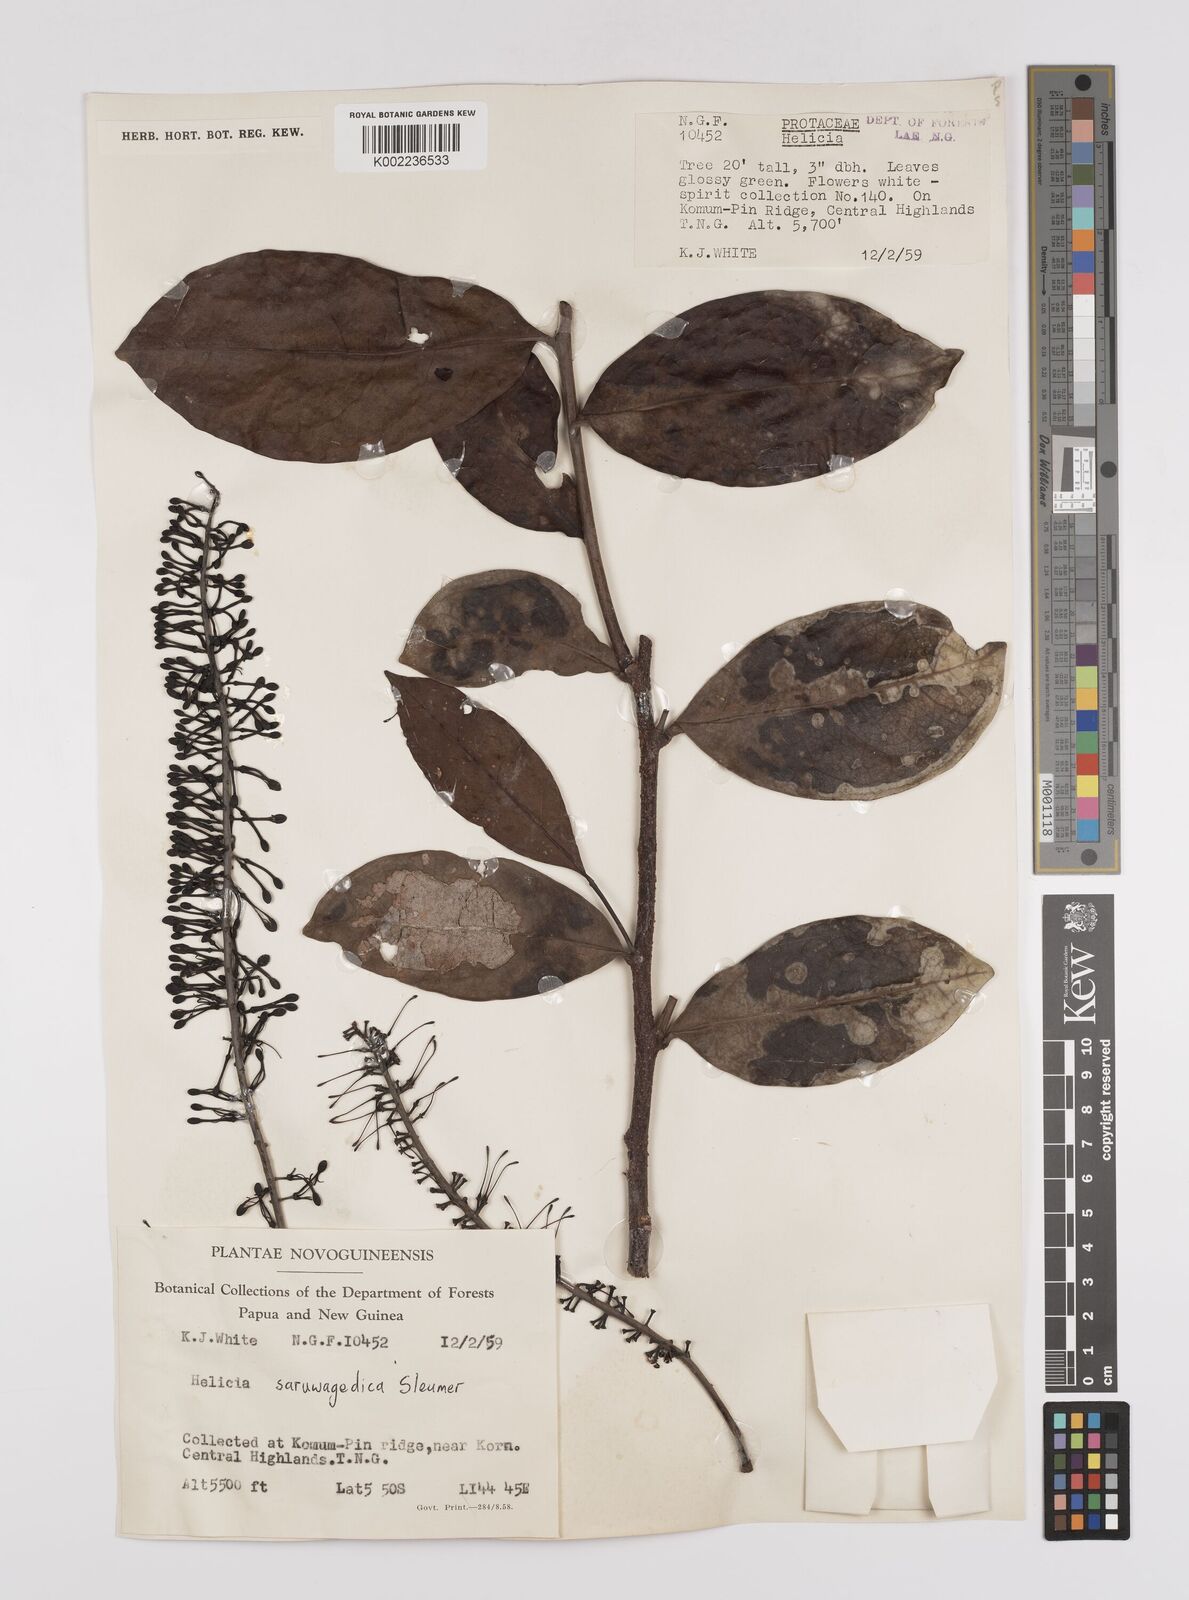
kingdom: Plantae
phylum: Tracheophyta
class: Magnoliopsida
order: Proteales
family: Proteaceae
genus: Helicia
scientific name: Helicia saruwagedica
